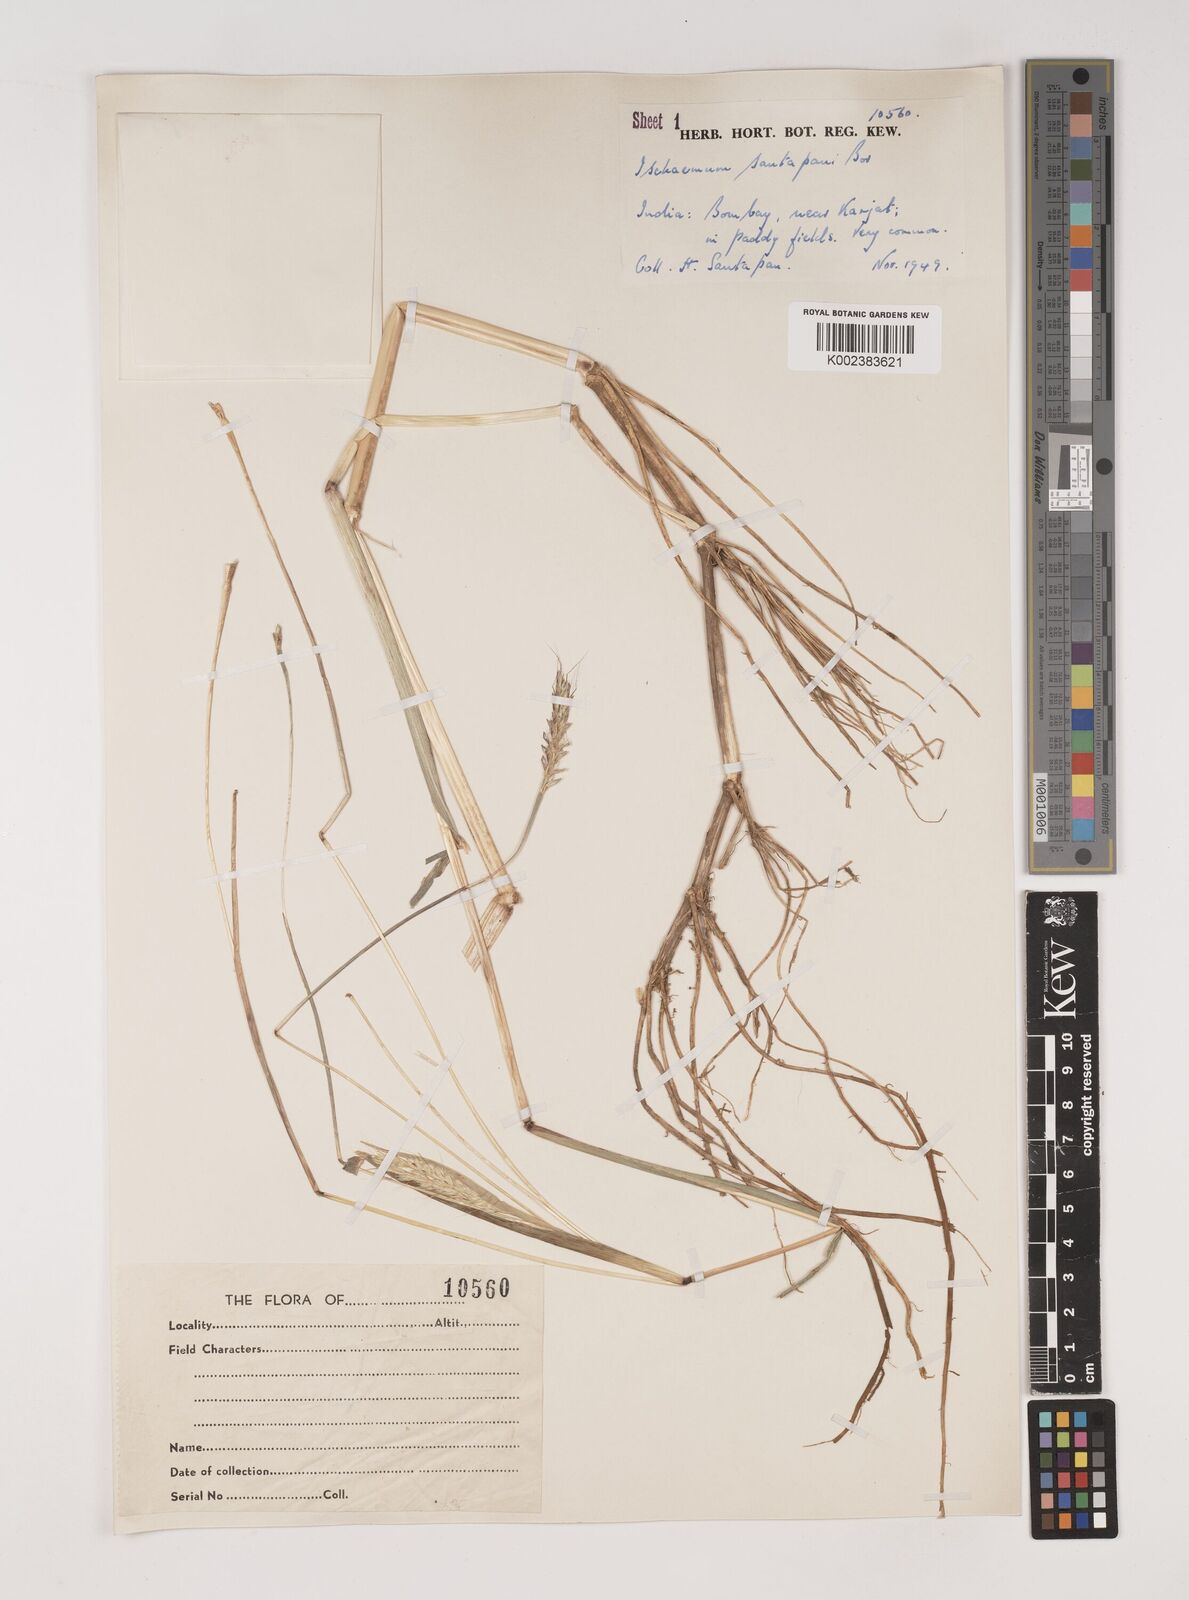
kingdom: Plantae
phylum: Tracheophyta
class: Liliopsida
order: Poales
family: Poaceae
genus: Ischaemum
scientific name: Ischaemum santapaui
